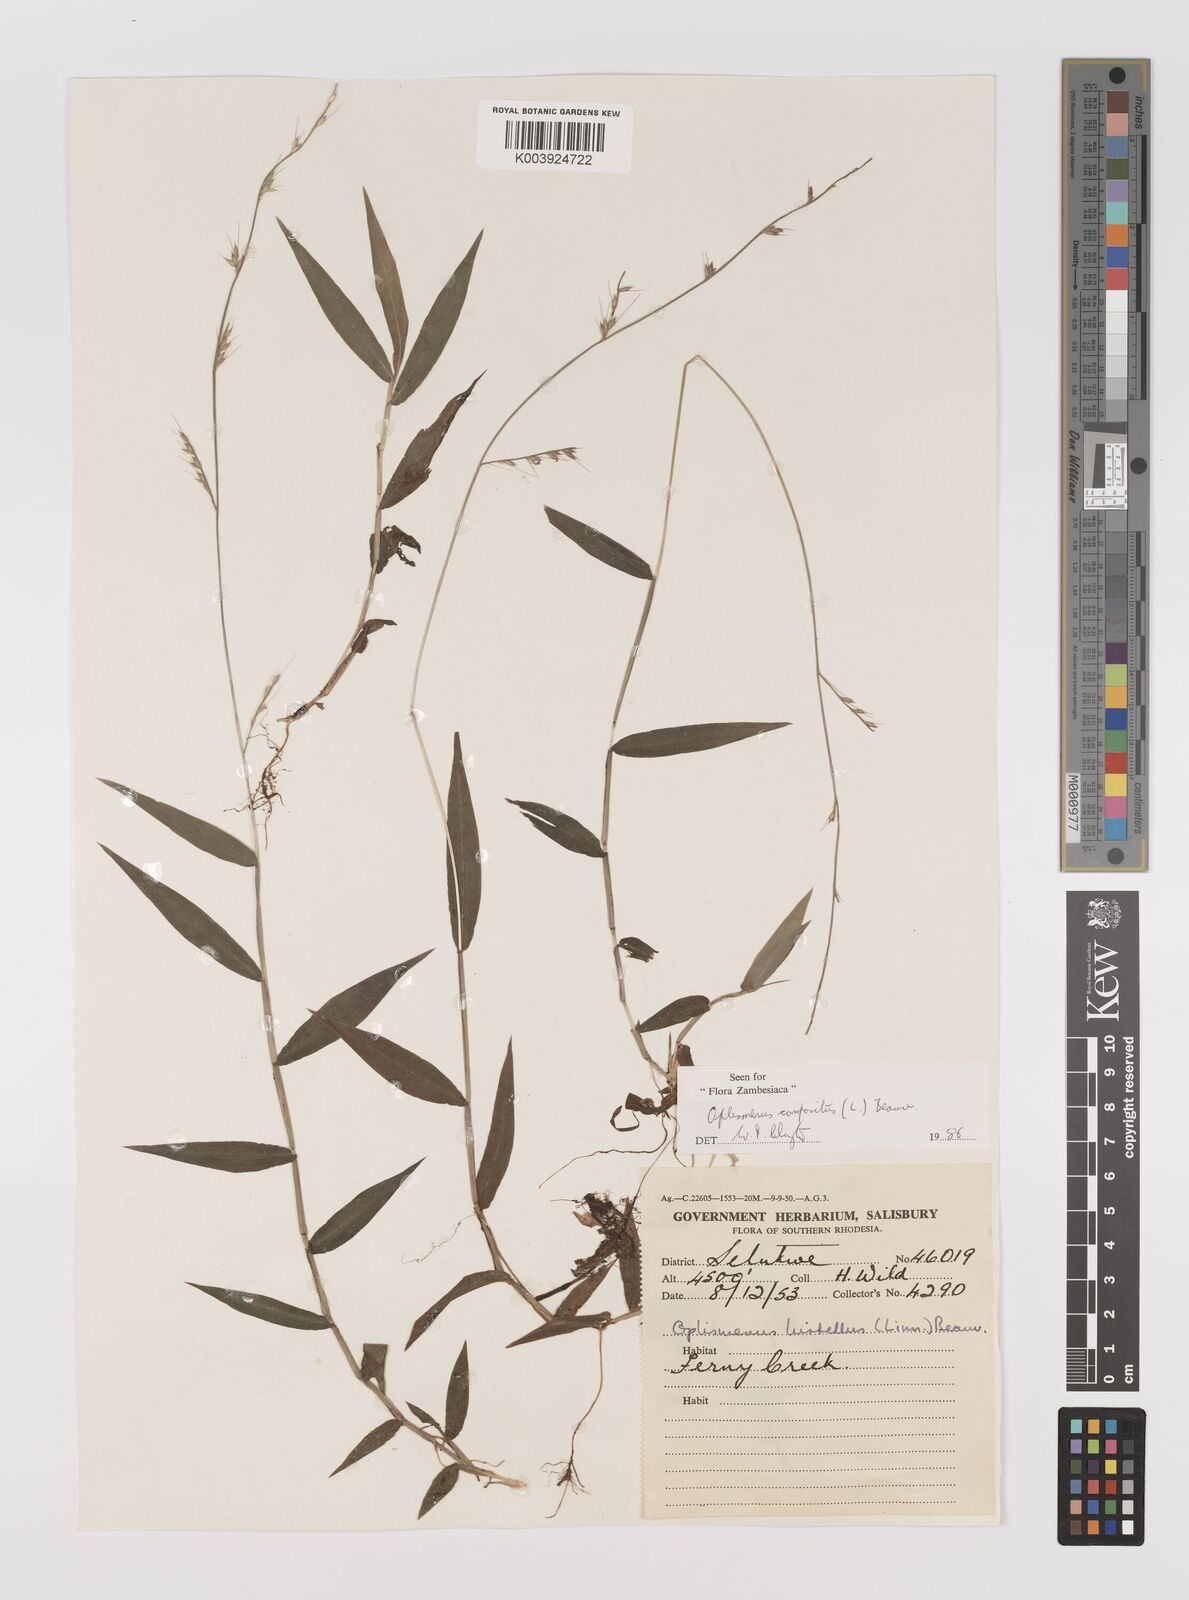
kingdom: Plantae
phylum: Tracheophyta
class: Liliopsida
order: Poales
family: Poaceae
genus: Oplismenus
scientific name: Oplismenus compositus
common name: Running mountain grass
